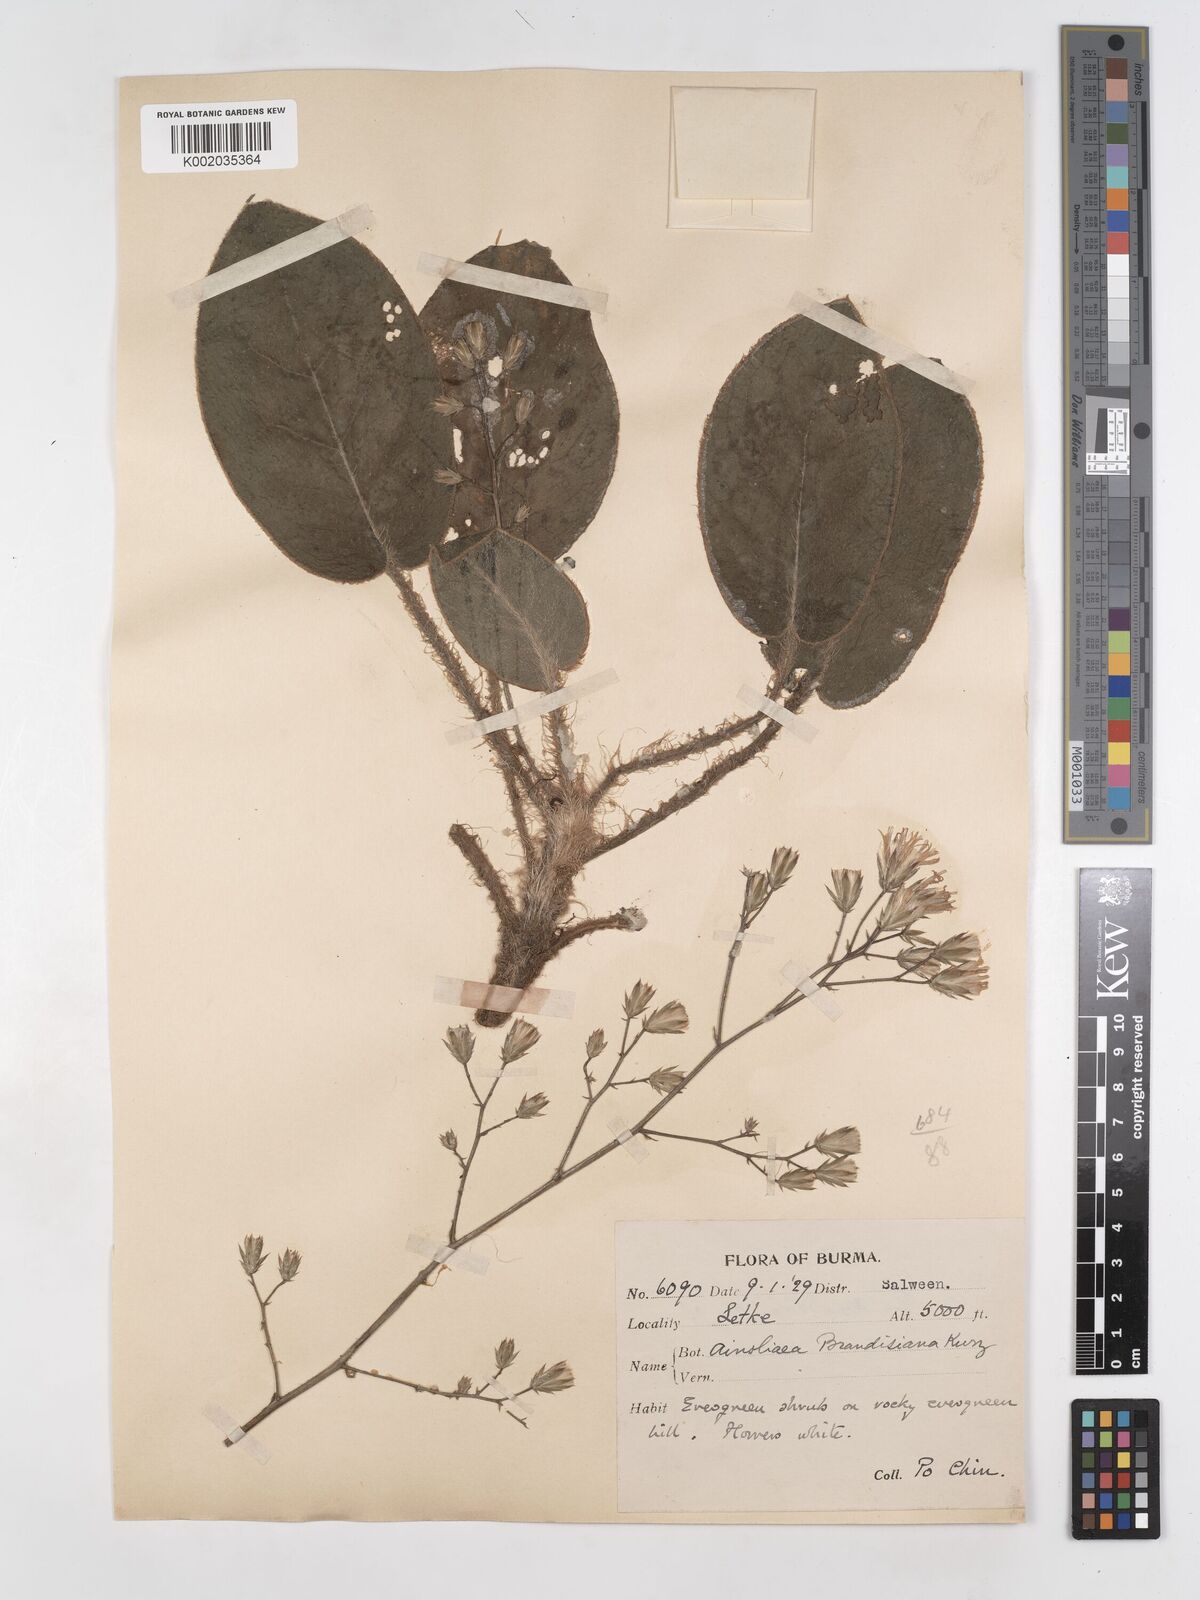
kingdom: Plantae
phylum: Tracheophyta
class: Magnoliopsida
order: Asterales
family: Asteraceae
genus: Ainsliaea
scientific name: Ainsliaea brandisiana
